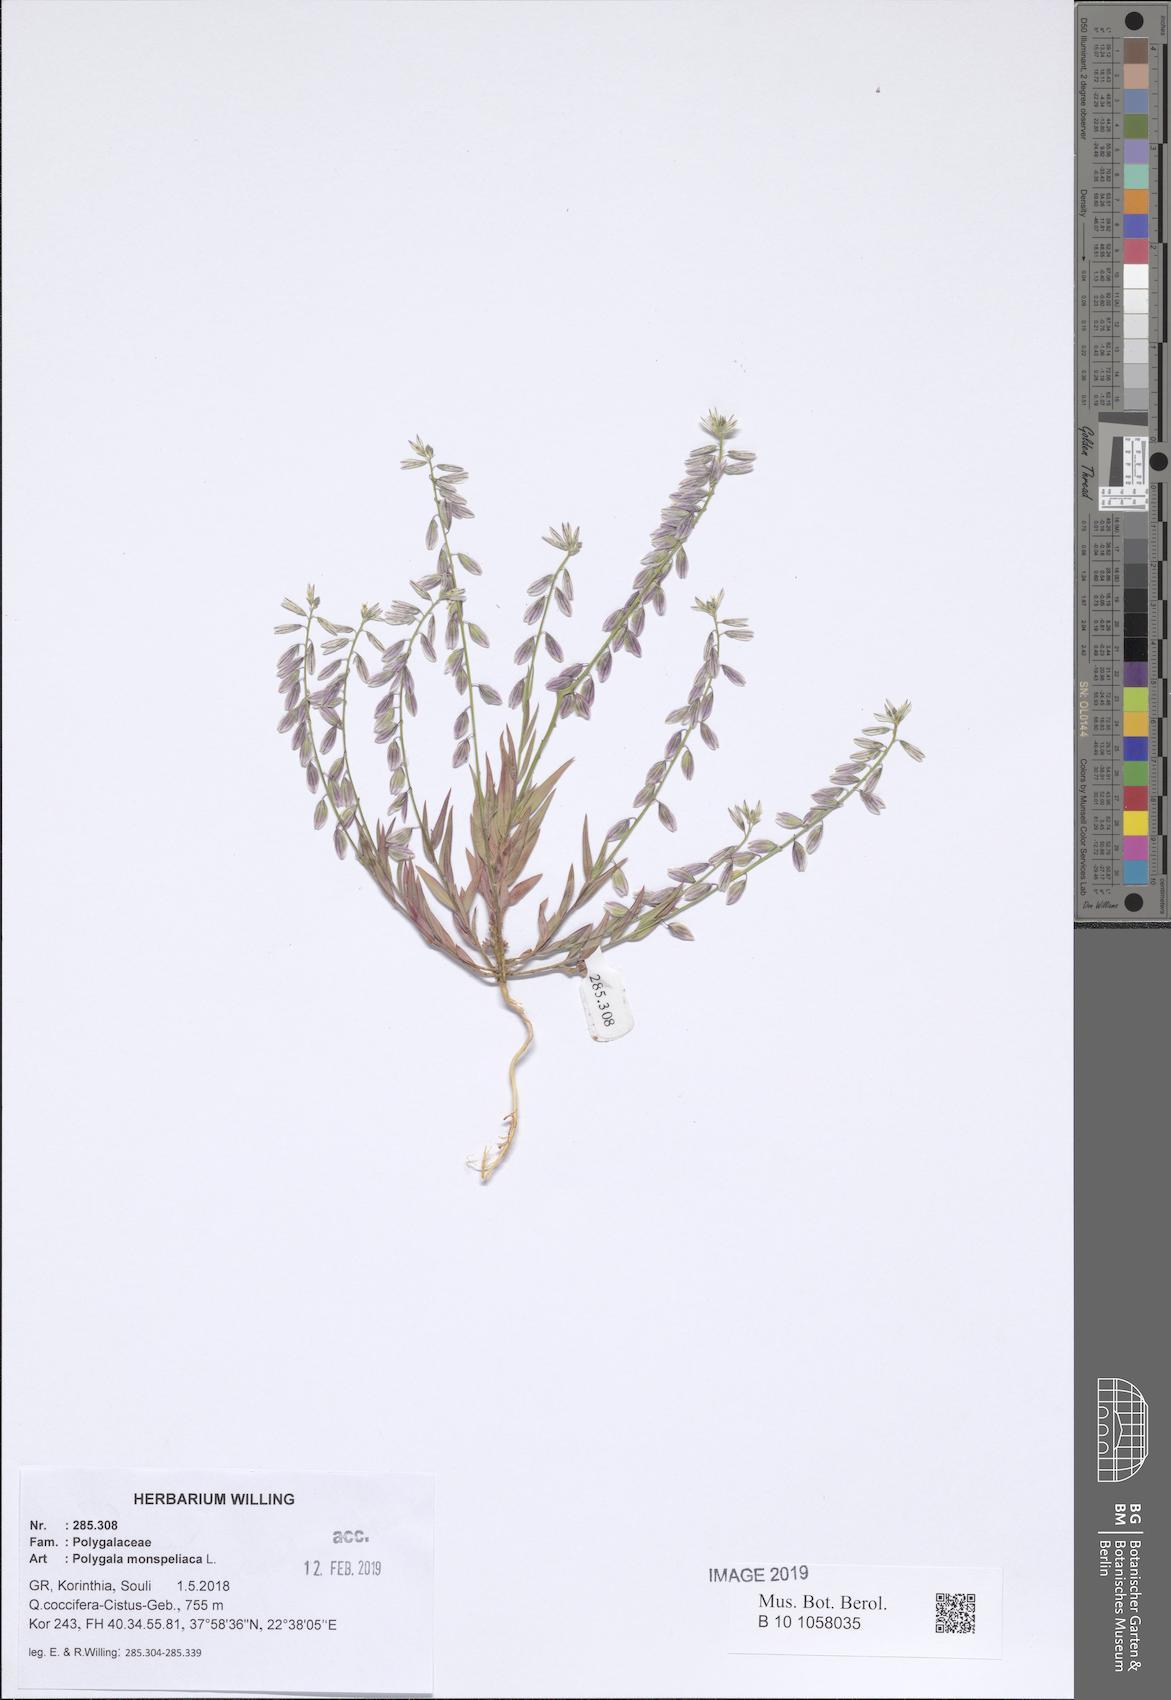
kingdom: Plantae
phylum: Tracheophyta
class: Magnoliopsida
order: Fabales
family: Polygalaceae
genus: Polygala
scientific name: Polygala monspeliaca
